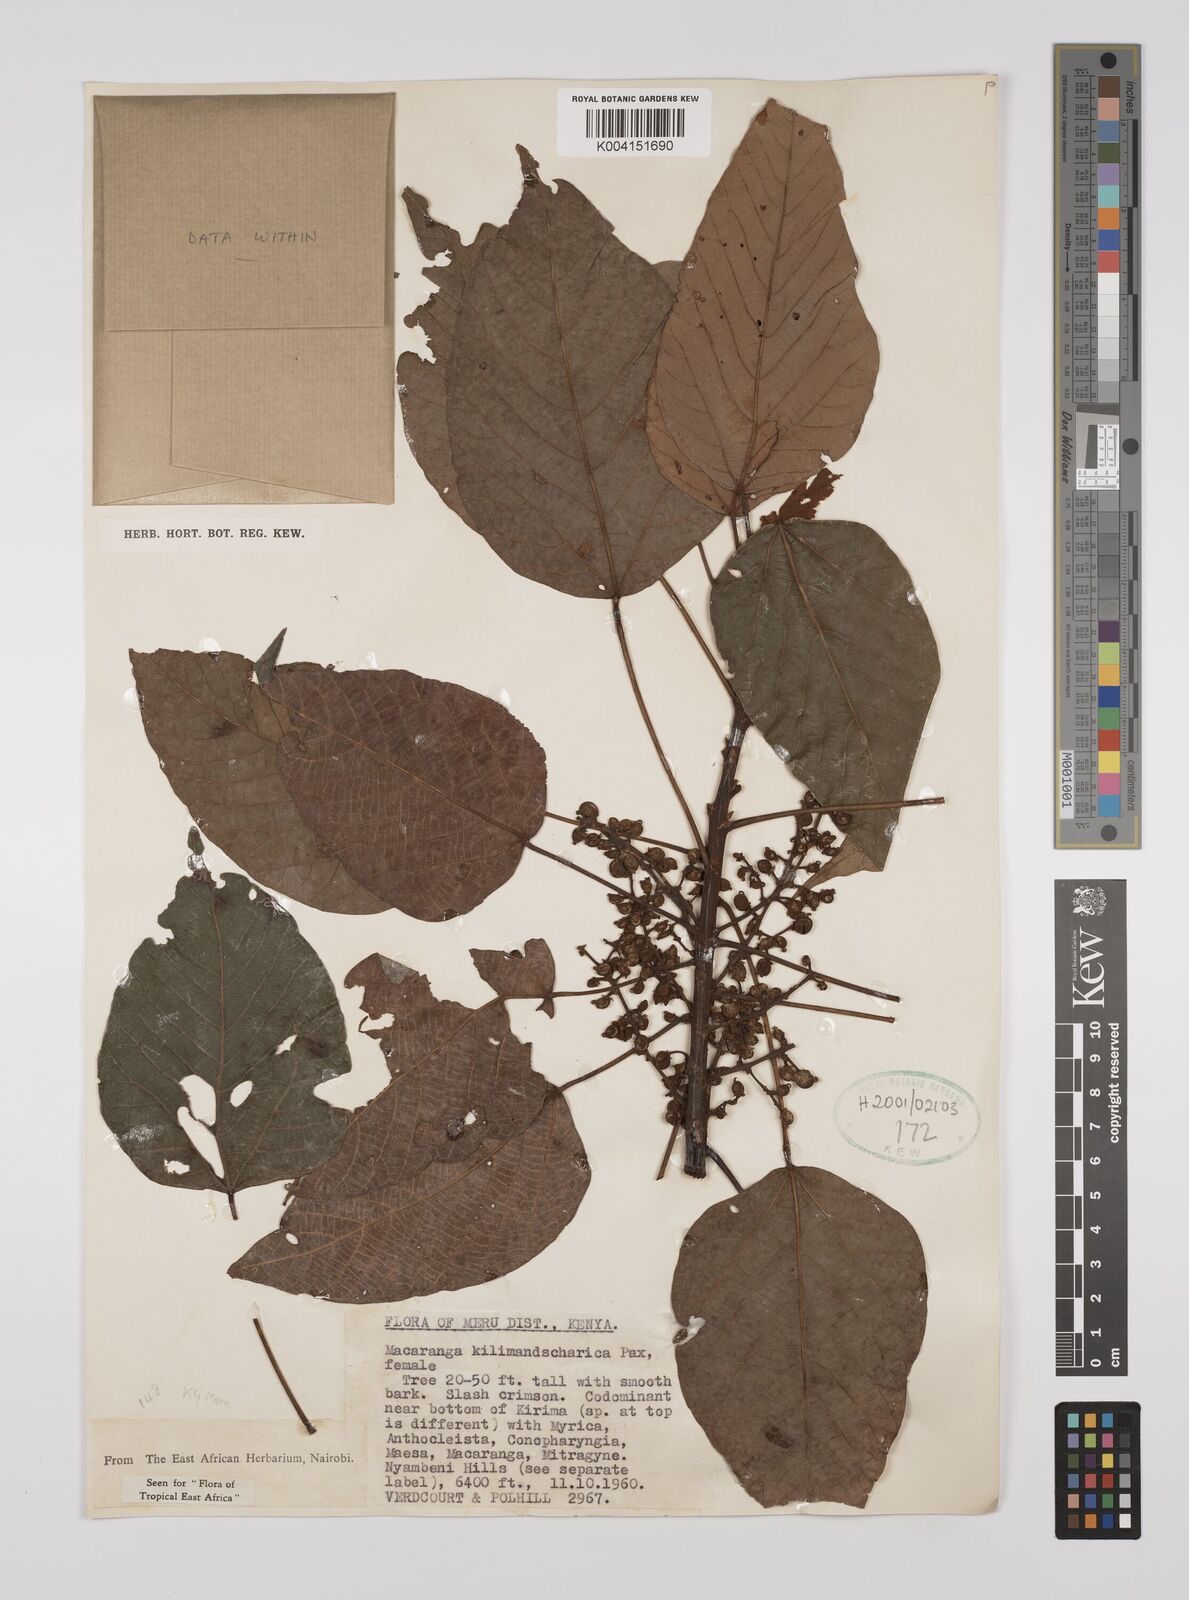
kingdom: Plantae
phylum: Tracheophyta
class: Magnoliopsida
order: Malpighiales
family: Euphorbiaceae
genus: Macaranga
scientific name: Macaranga kilimandscharica
